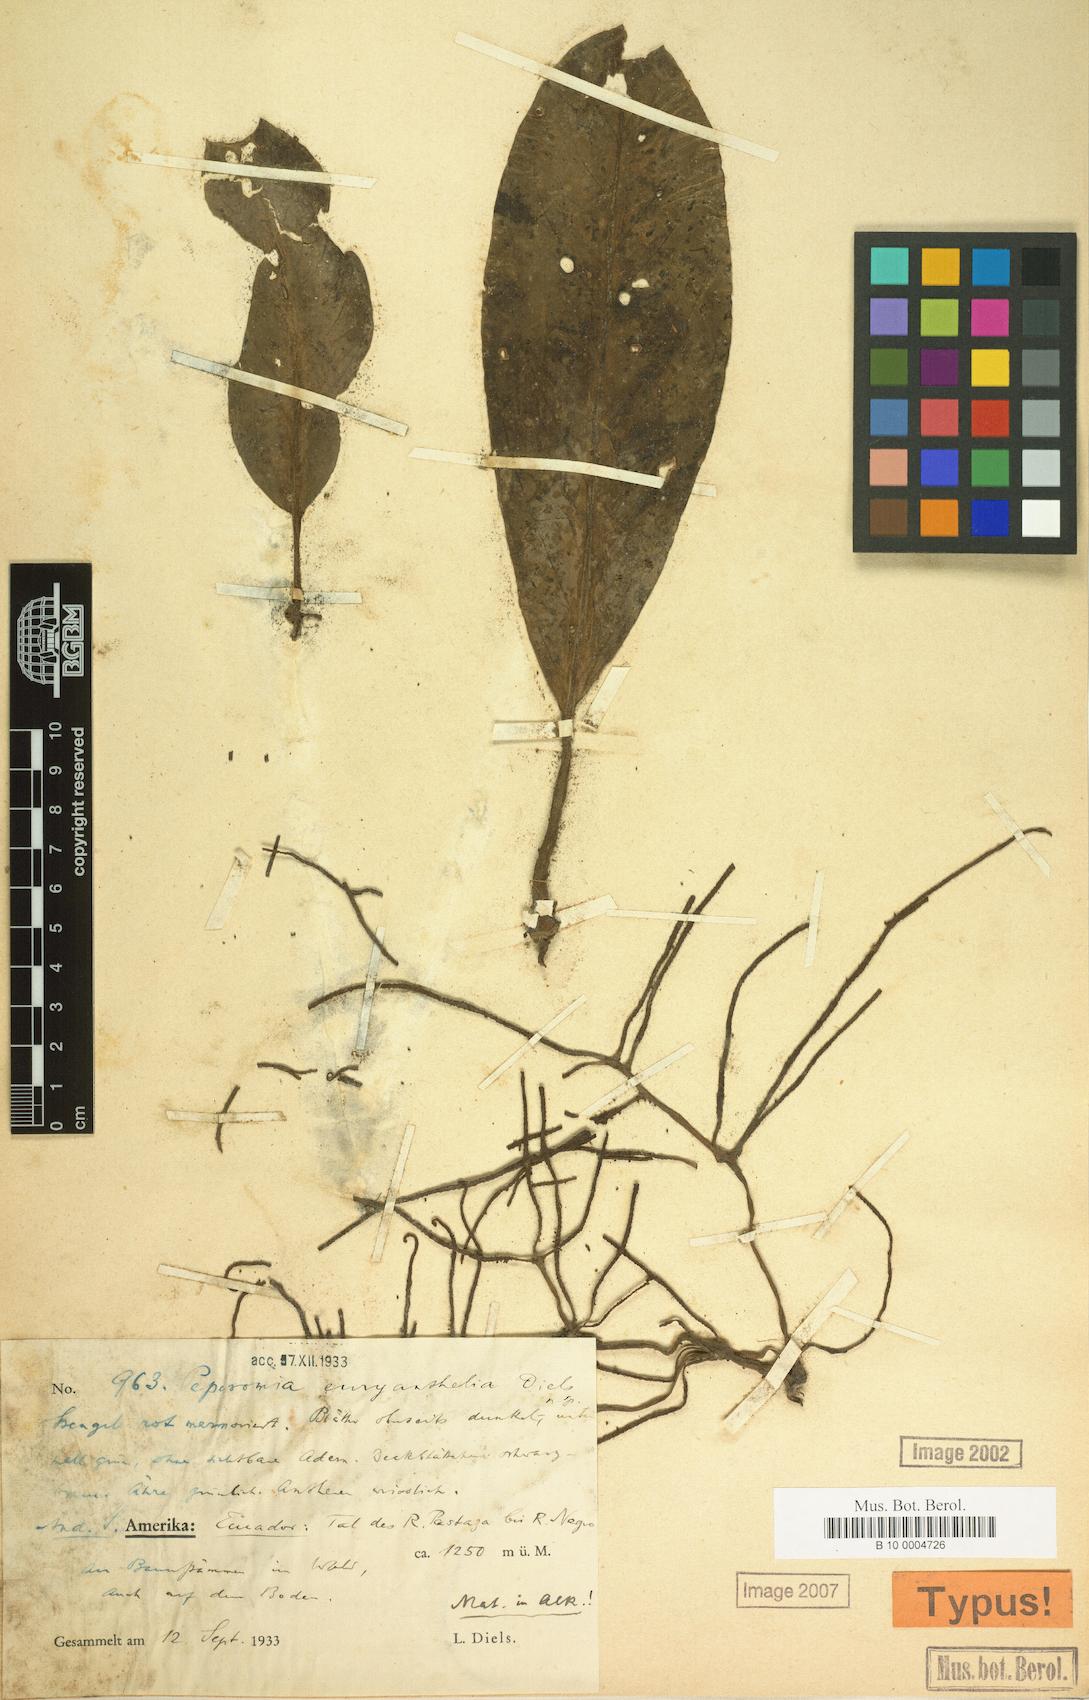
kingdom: Plantae
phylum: Tracheophyta
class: Magnoliopsida
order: Piperales
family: Piperaceae
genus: Peperomia
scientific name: Peperomia striata
